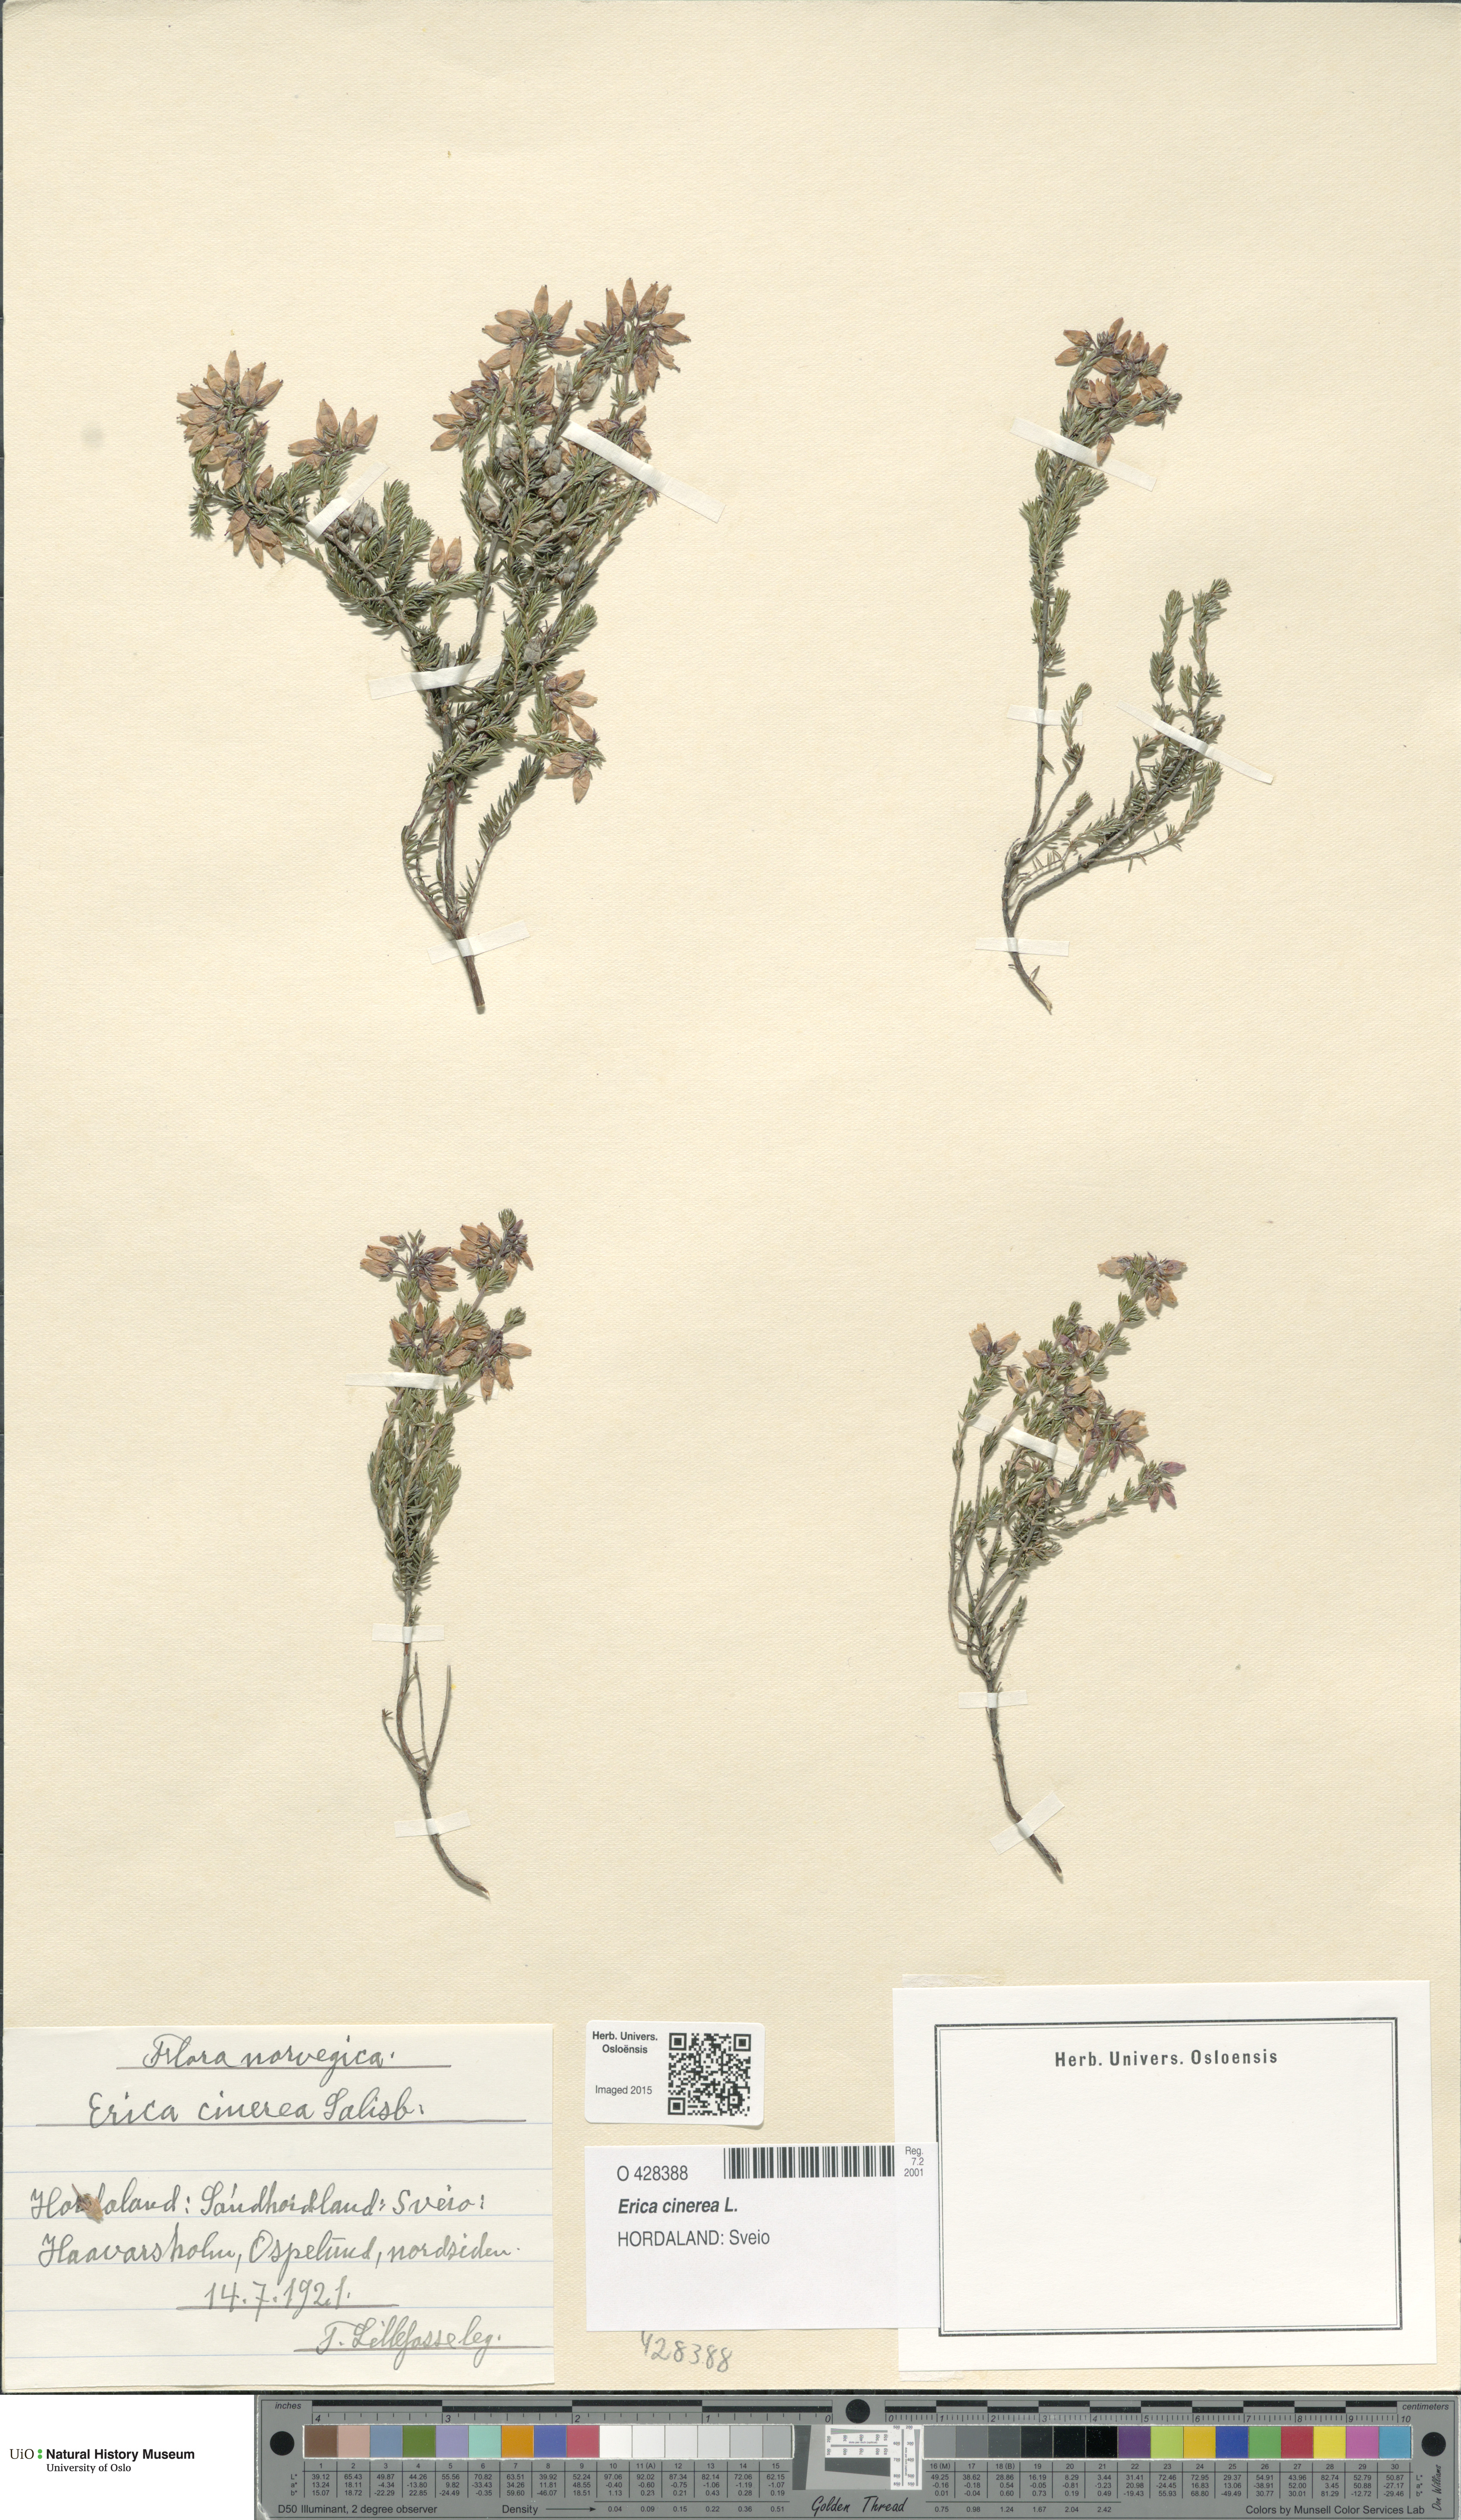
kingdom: Plantae
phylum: Tracheophyta
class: Magnoliopsida
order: Ericales
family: Ericaceae
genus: Erica
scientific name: Erica cinerea
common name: Bell heather
